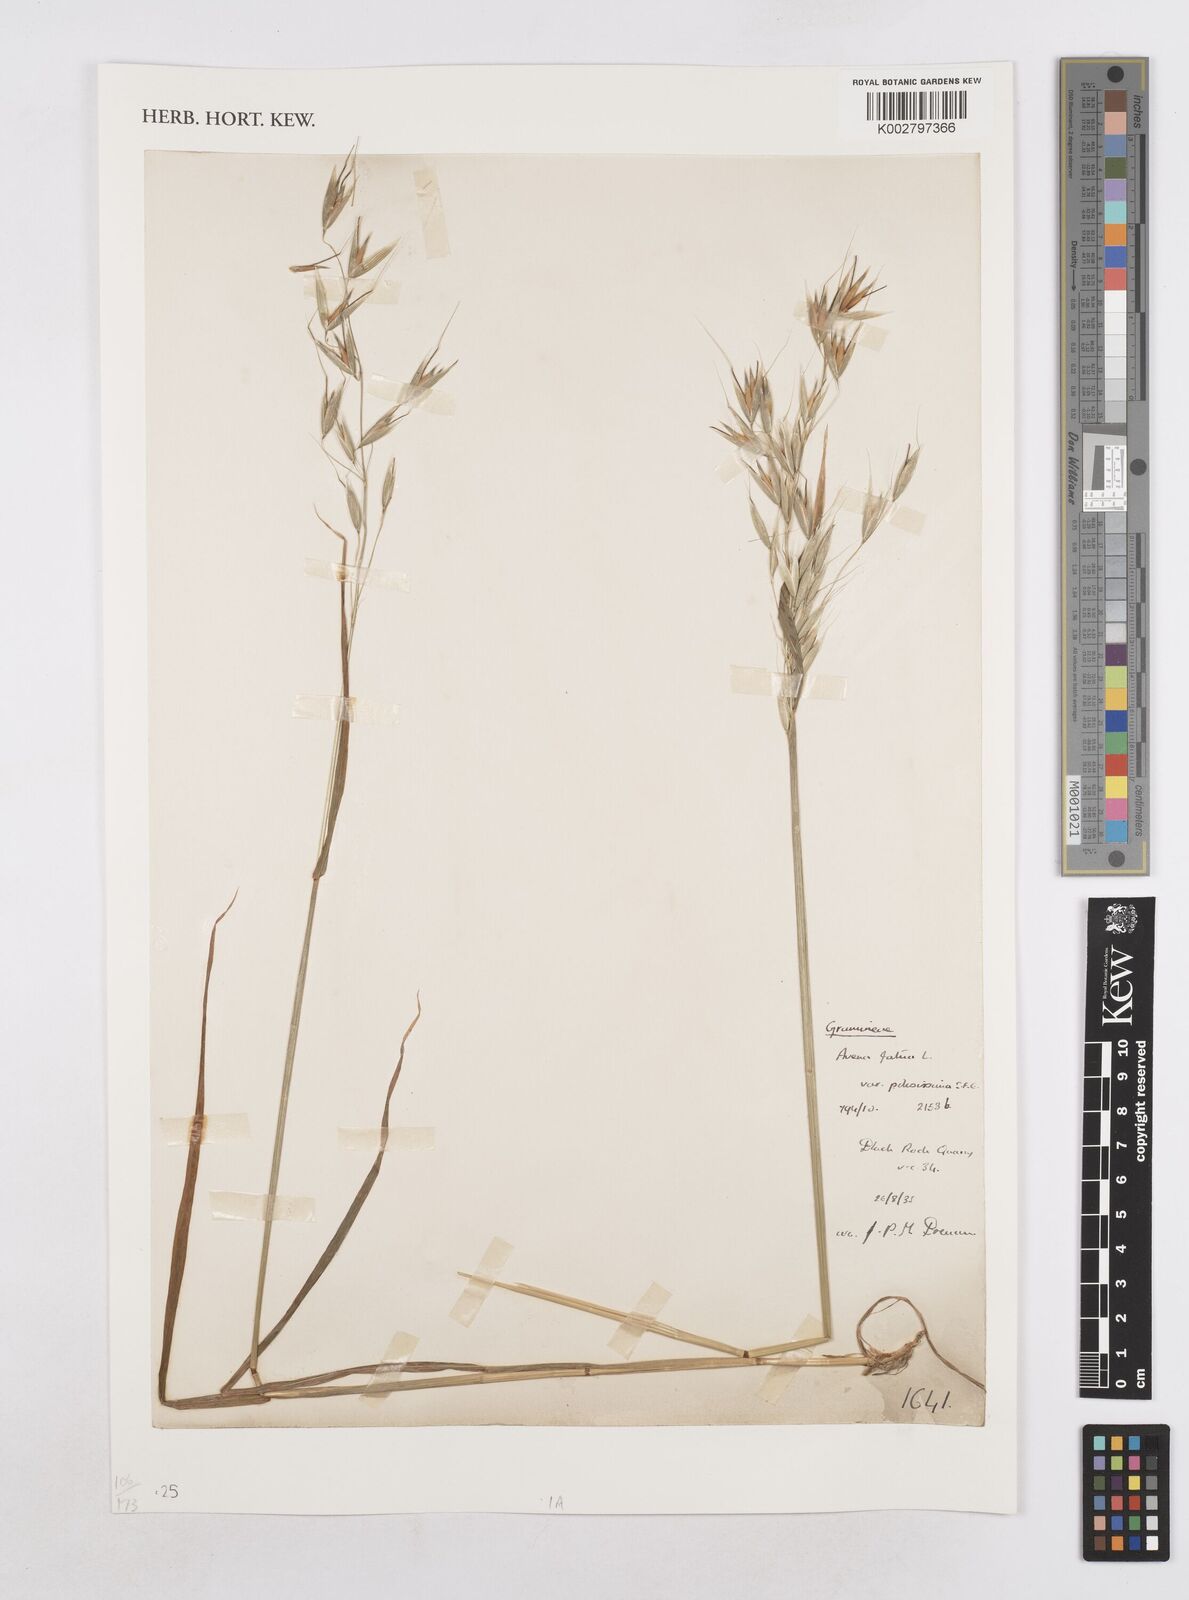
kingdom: Plantae
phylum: Tracheophyta
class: Liliopsida
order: Poales
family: Poaceae
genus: Avena
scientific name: Avena fatua
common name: Wild oat
